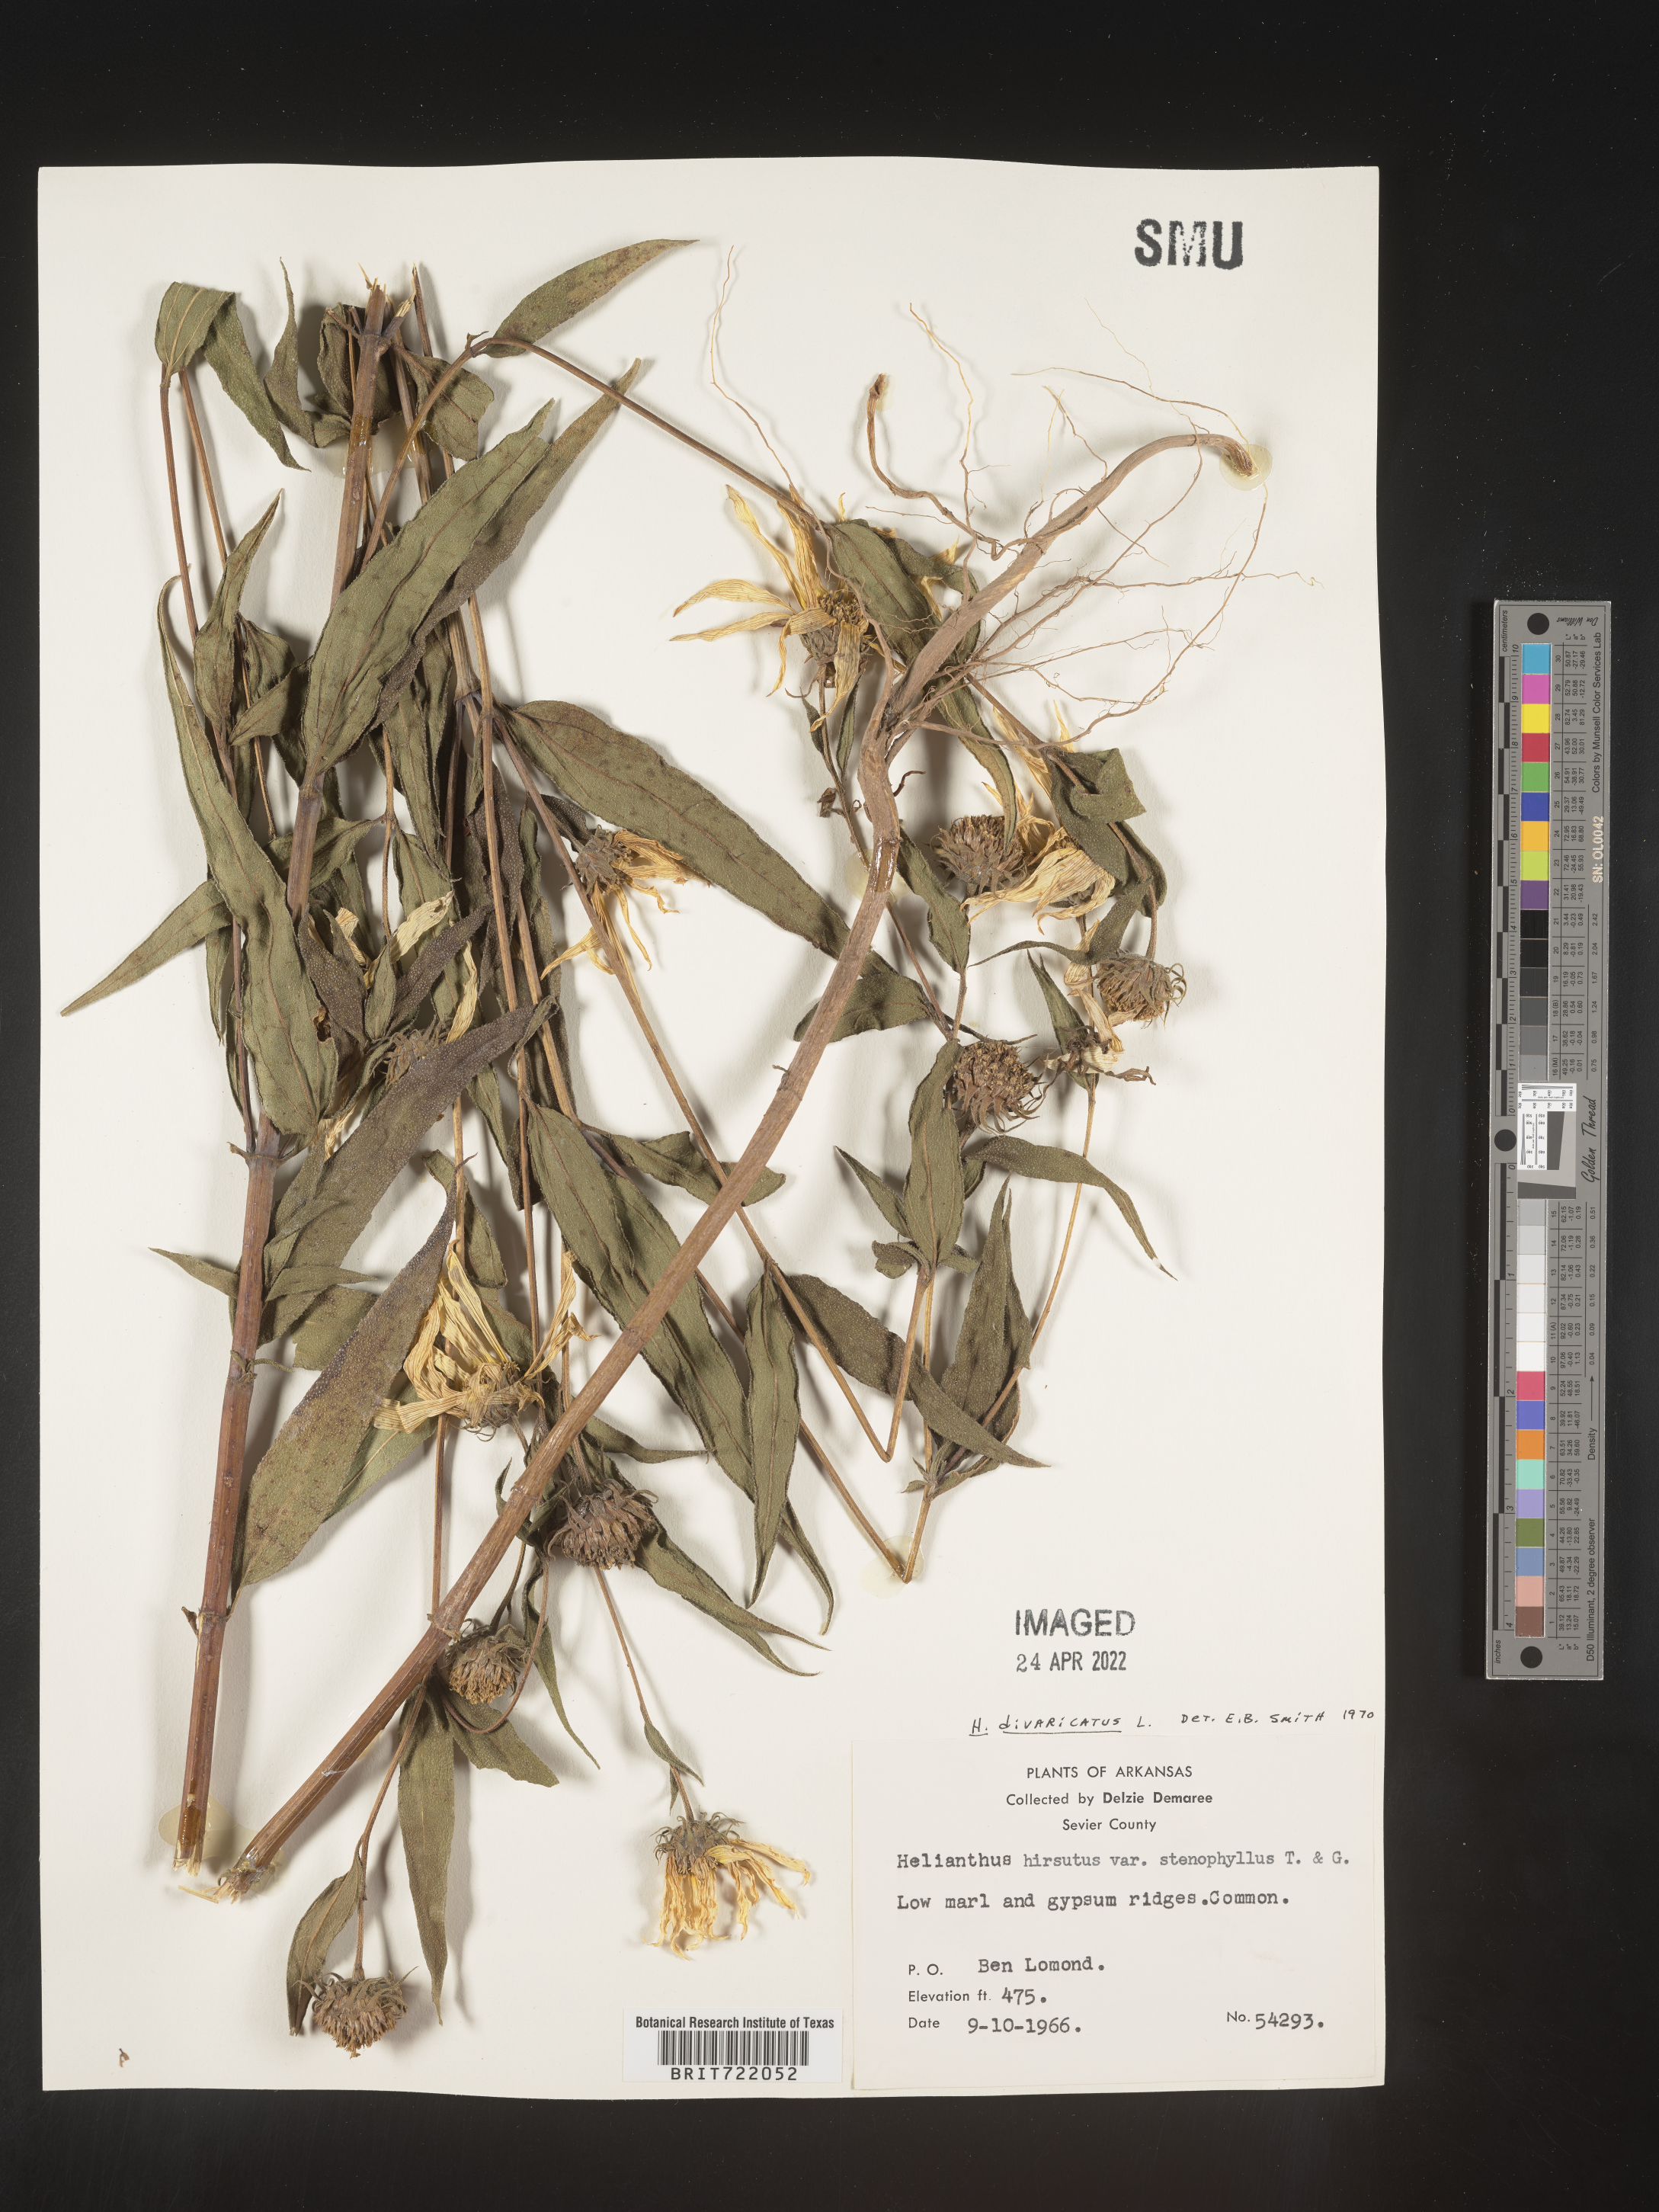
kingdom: Plantae
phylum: Tracheophyta
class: Magnoliopsida
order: Asterales
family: Asteraceae
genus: Helianthus
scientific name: Helianthus divaricatus
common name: Divergent sunflower
